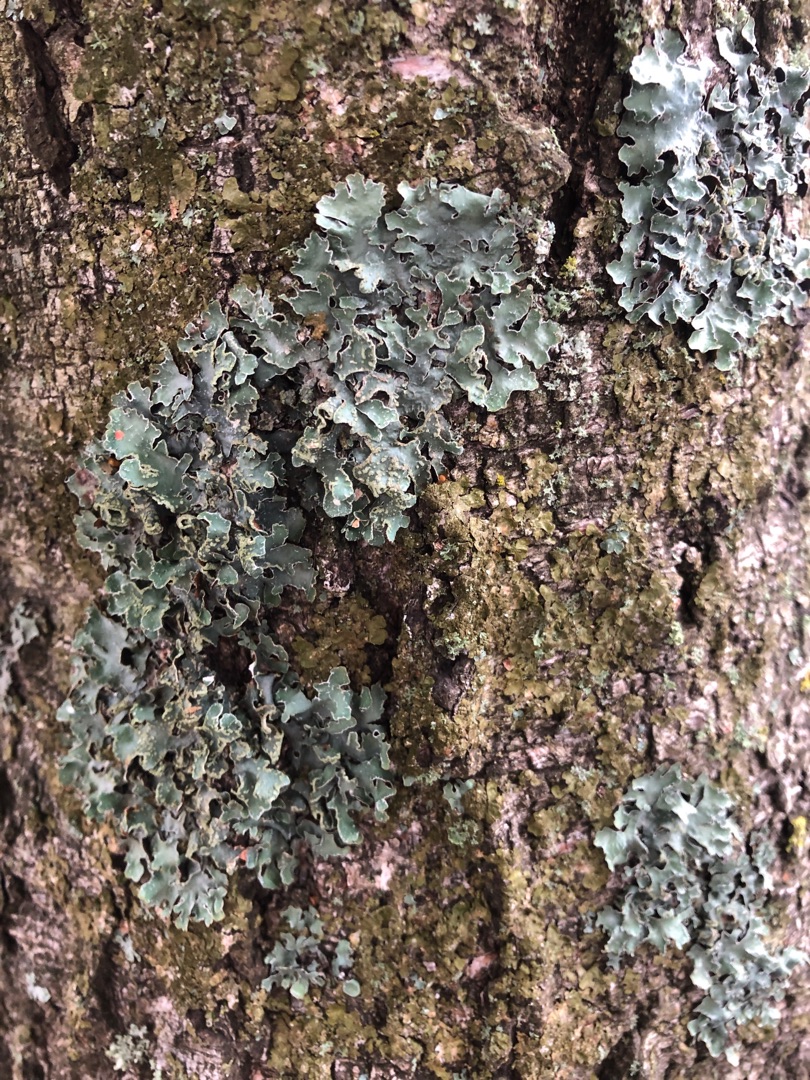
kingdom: Fungi
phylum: Ascomycota
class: Lecanoromycetes
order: Lecanorales
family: Parmeliaceae
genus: Parmelia
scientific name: Parmelia sulcata
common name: Rynket skållav
